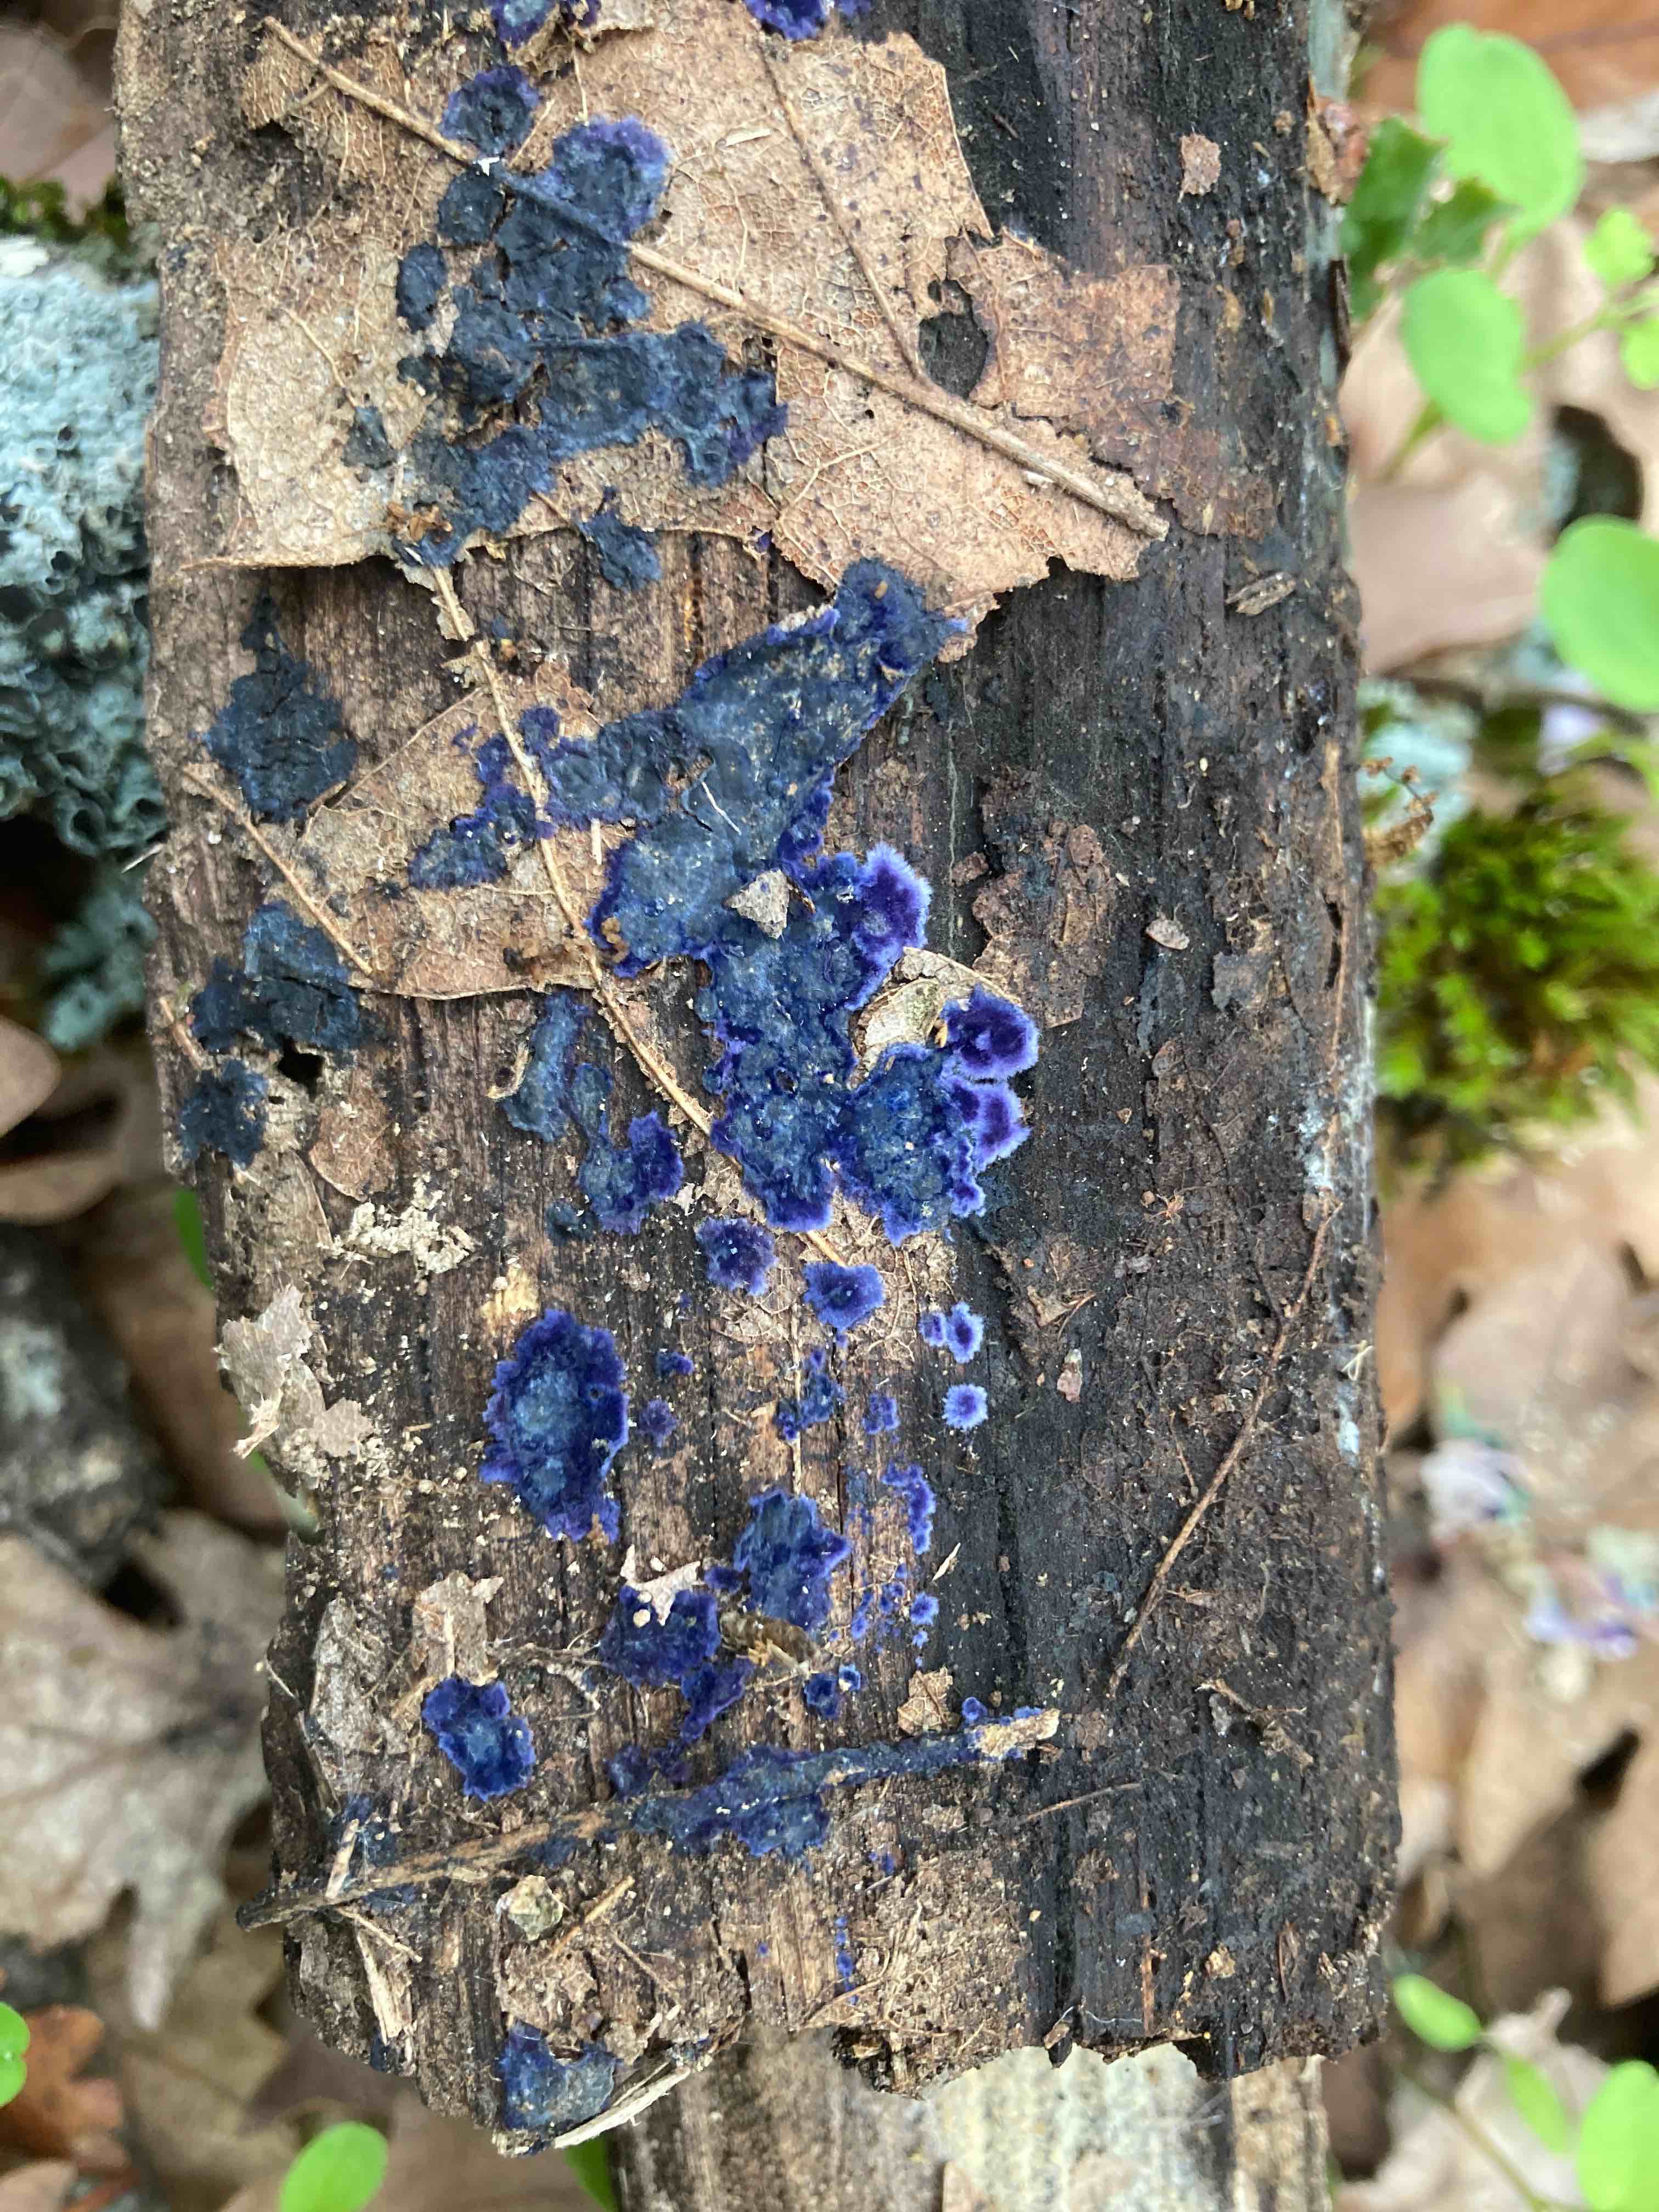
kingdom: Fungi
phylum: Basidiomycota
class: Agaricomycetes
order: Polyporales
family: Phanerochaetaceae
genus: Terana
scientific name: Terana caerulea
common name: indigoskorpe
